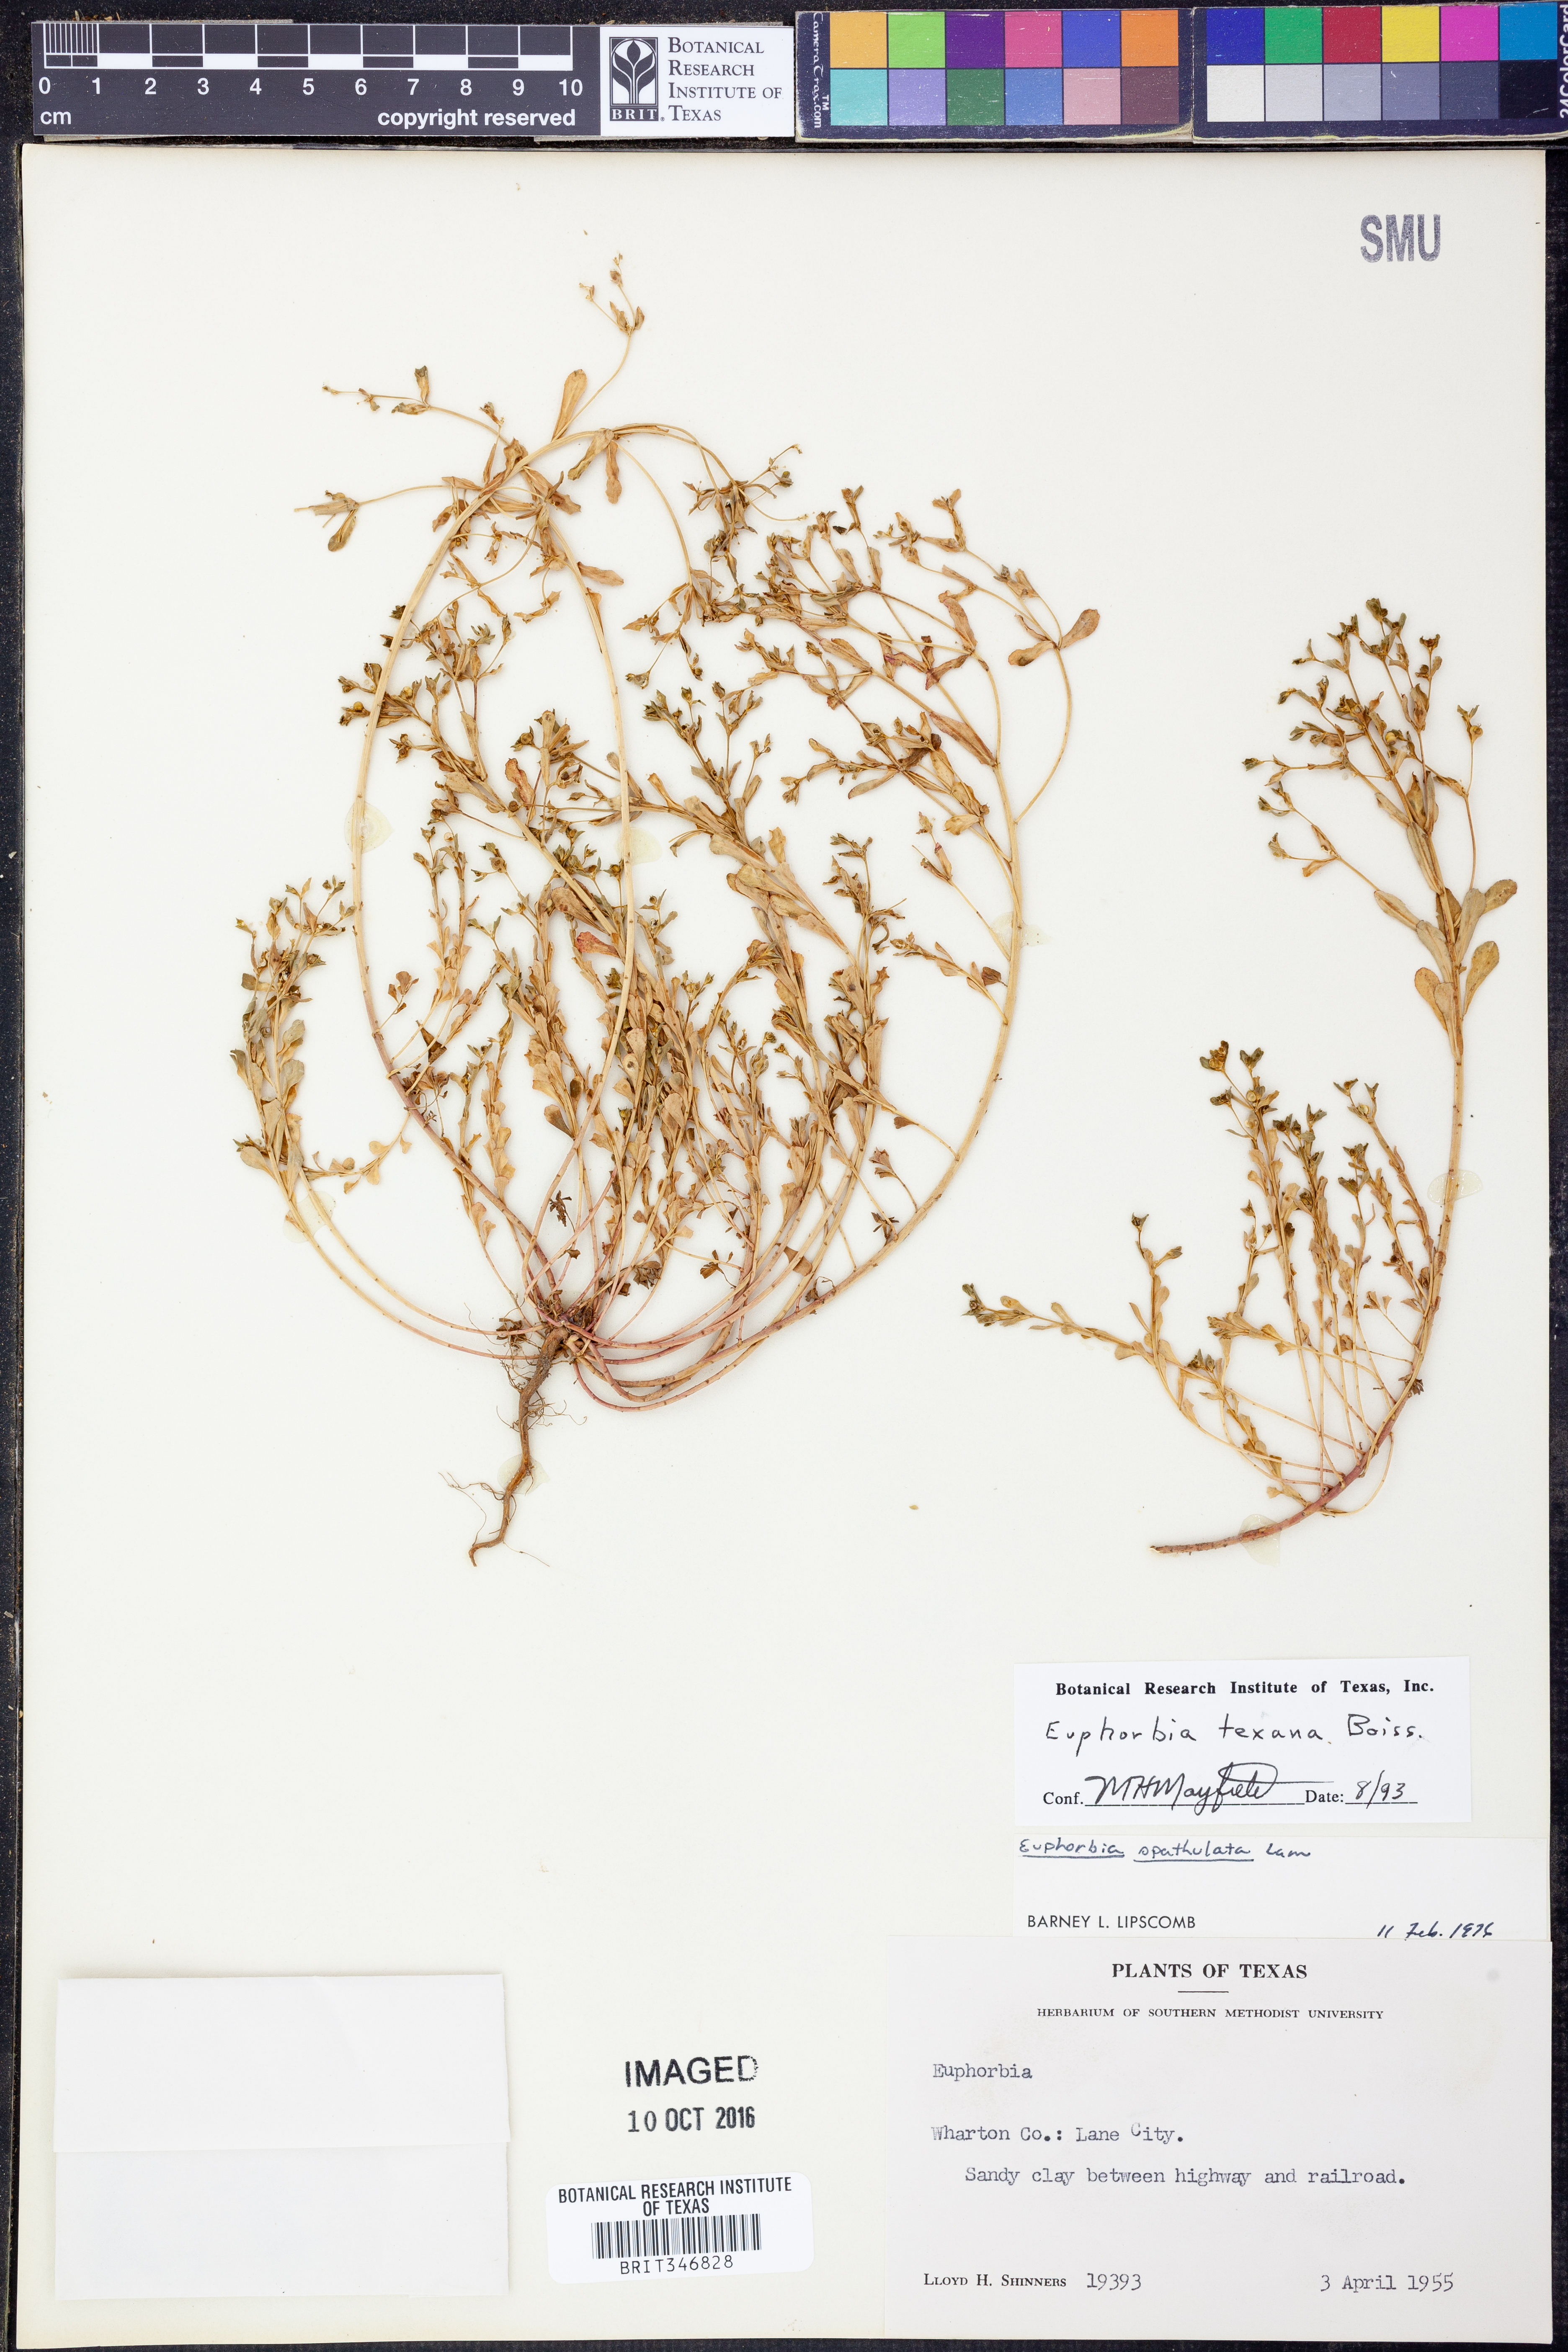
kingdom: Plantae
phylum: Tracheophyta
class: Magnoliopsida
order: Malpighiales
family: Euphorbiaceae
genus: Euphorbia
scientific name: Euphorbia texana
